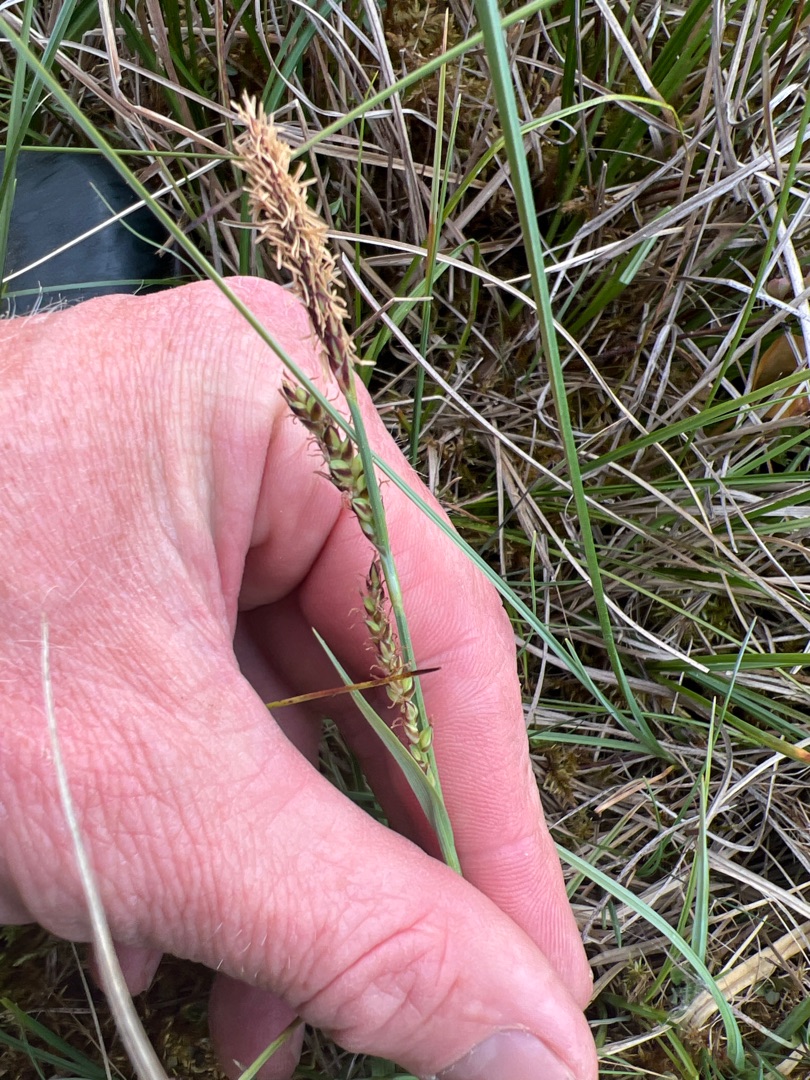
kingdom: Plantae
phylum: Tracheophyta
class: Liliopsida
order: Poales
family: Cyperaceae
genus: Carex
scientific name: Carex panicea
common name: Hirse-star
